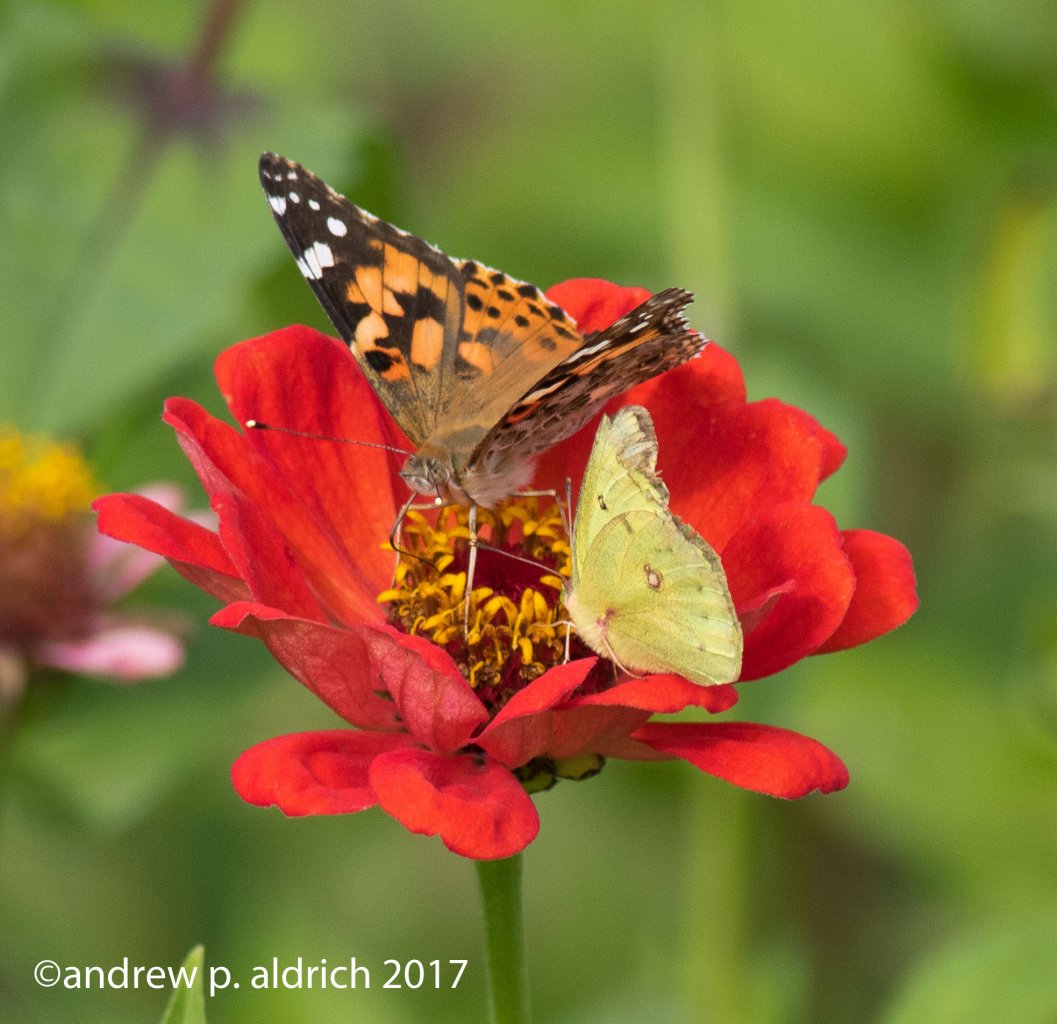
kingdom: Animalia
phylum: Arthropoda
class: Insecta
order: Lepidoptera
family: Pieridae
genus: Colias
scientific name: Colias philodice
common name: Clouded Sulphur
